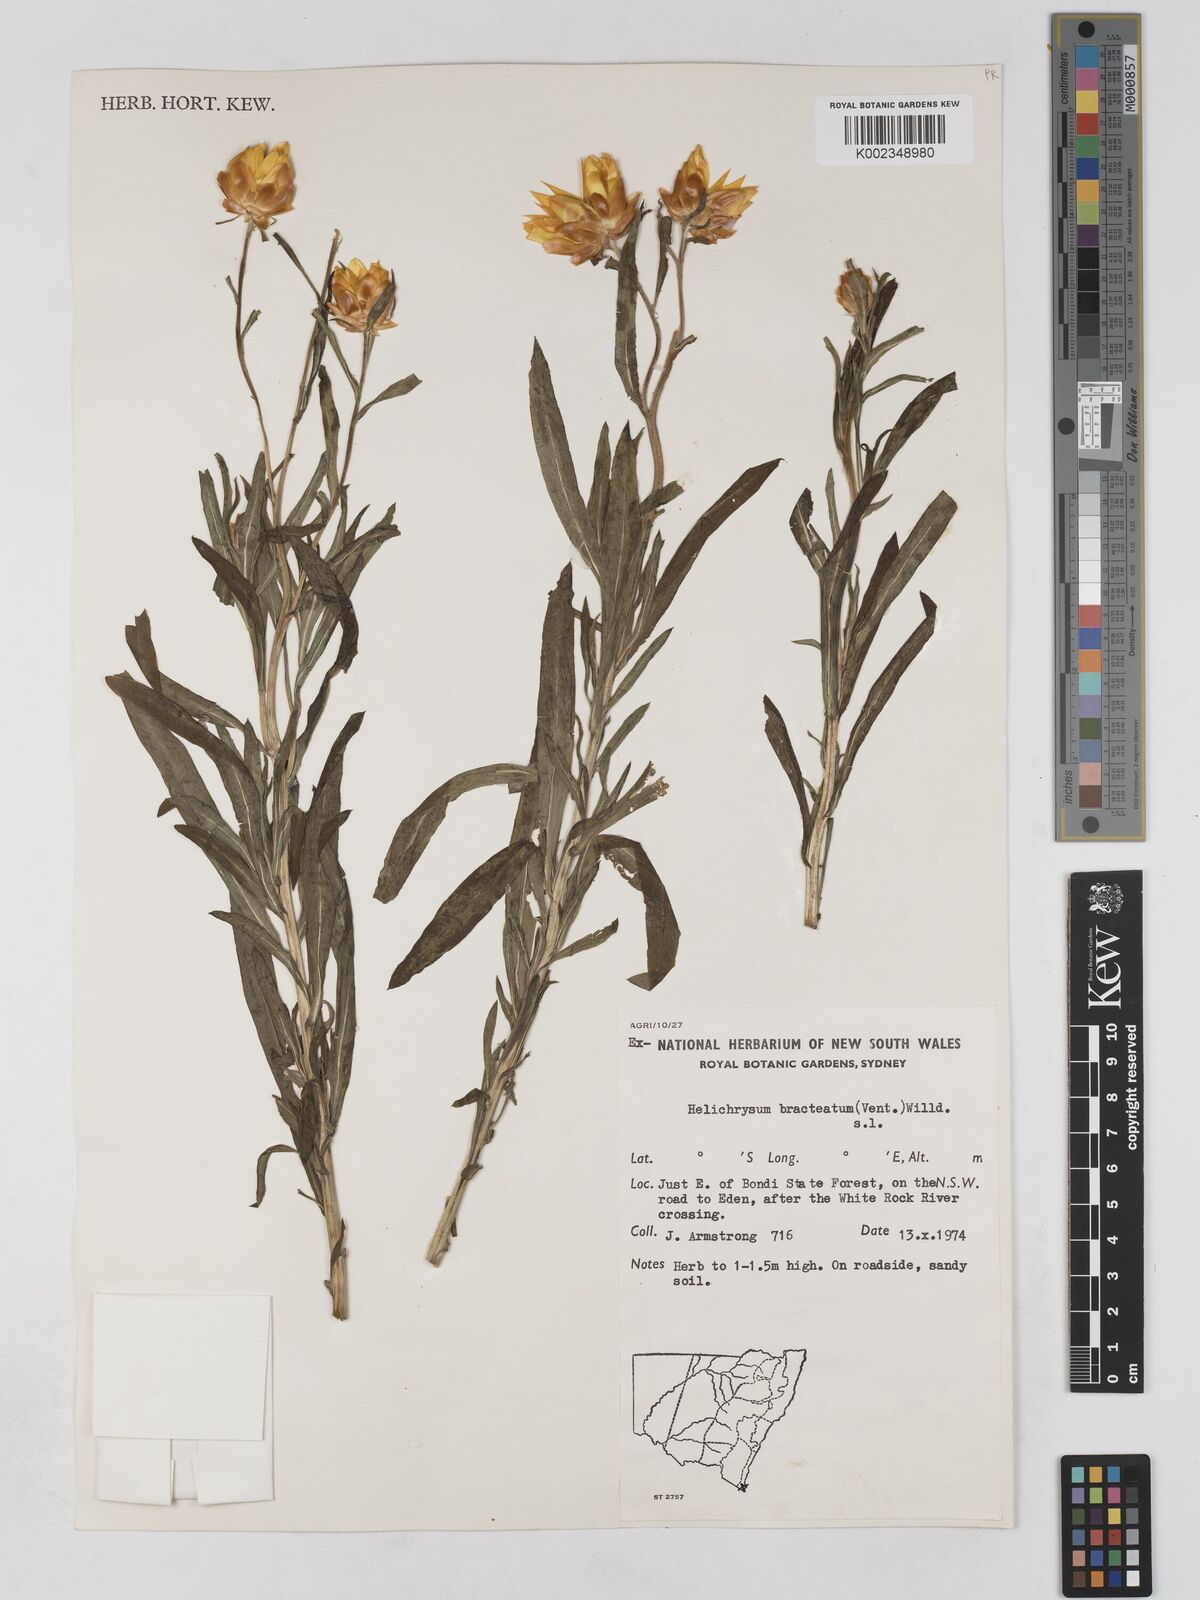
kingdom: Plantae
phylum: Tracheophyta
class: Magnoliopsida
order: Asterales
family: Asteraceae
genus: Xerochrysum
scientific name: Xerochrysum bracteatum
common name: Bracted strawflower
